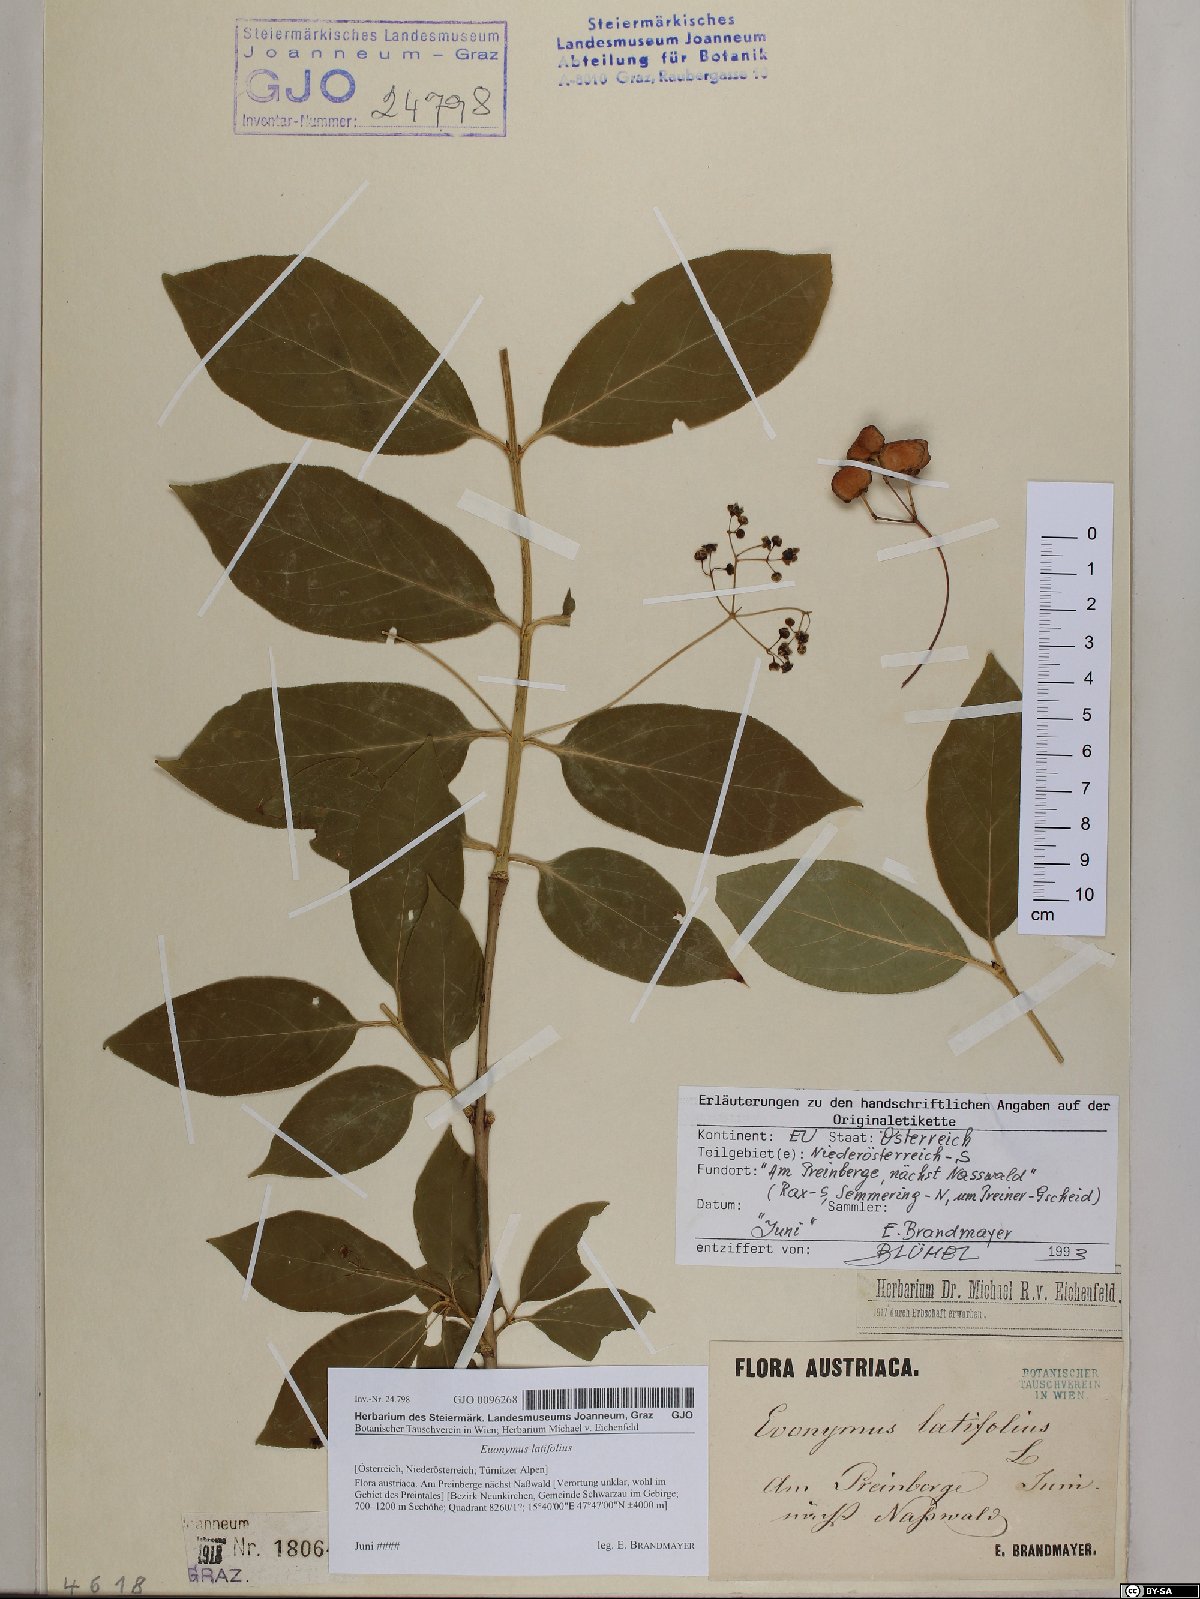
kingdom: Plantae
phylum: Tracheophyta
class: Magnoliopsida
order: Celastrales
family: Celastraceae
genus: Euonymus
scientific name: Euonymus latifolius
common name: Large-leaved spindle
